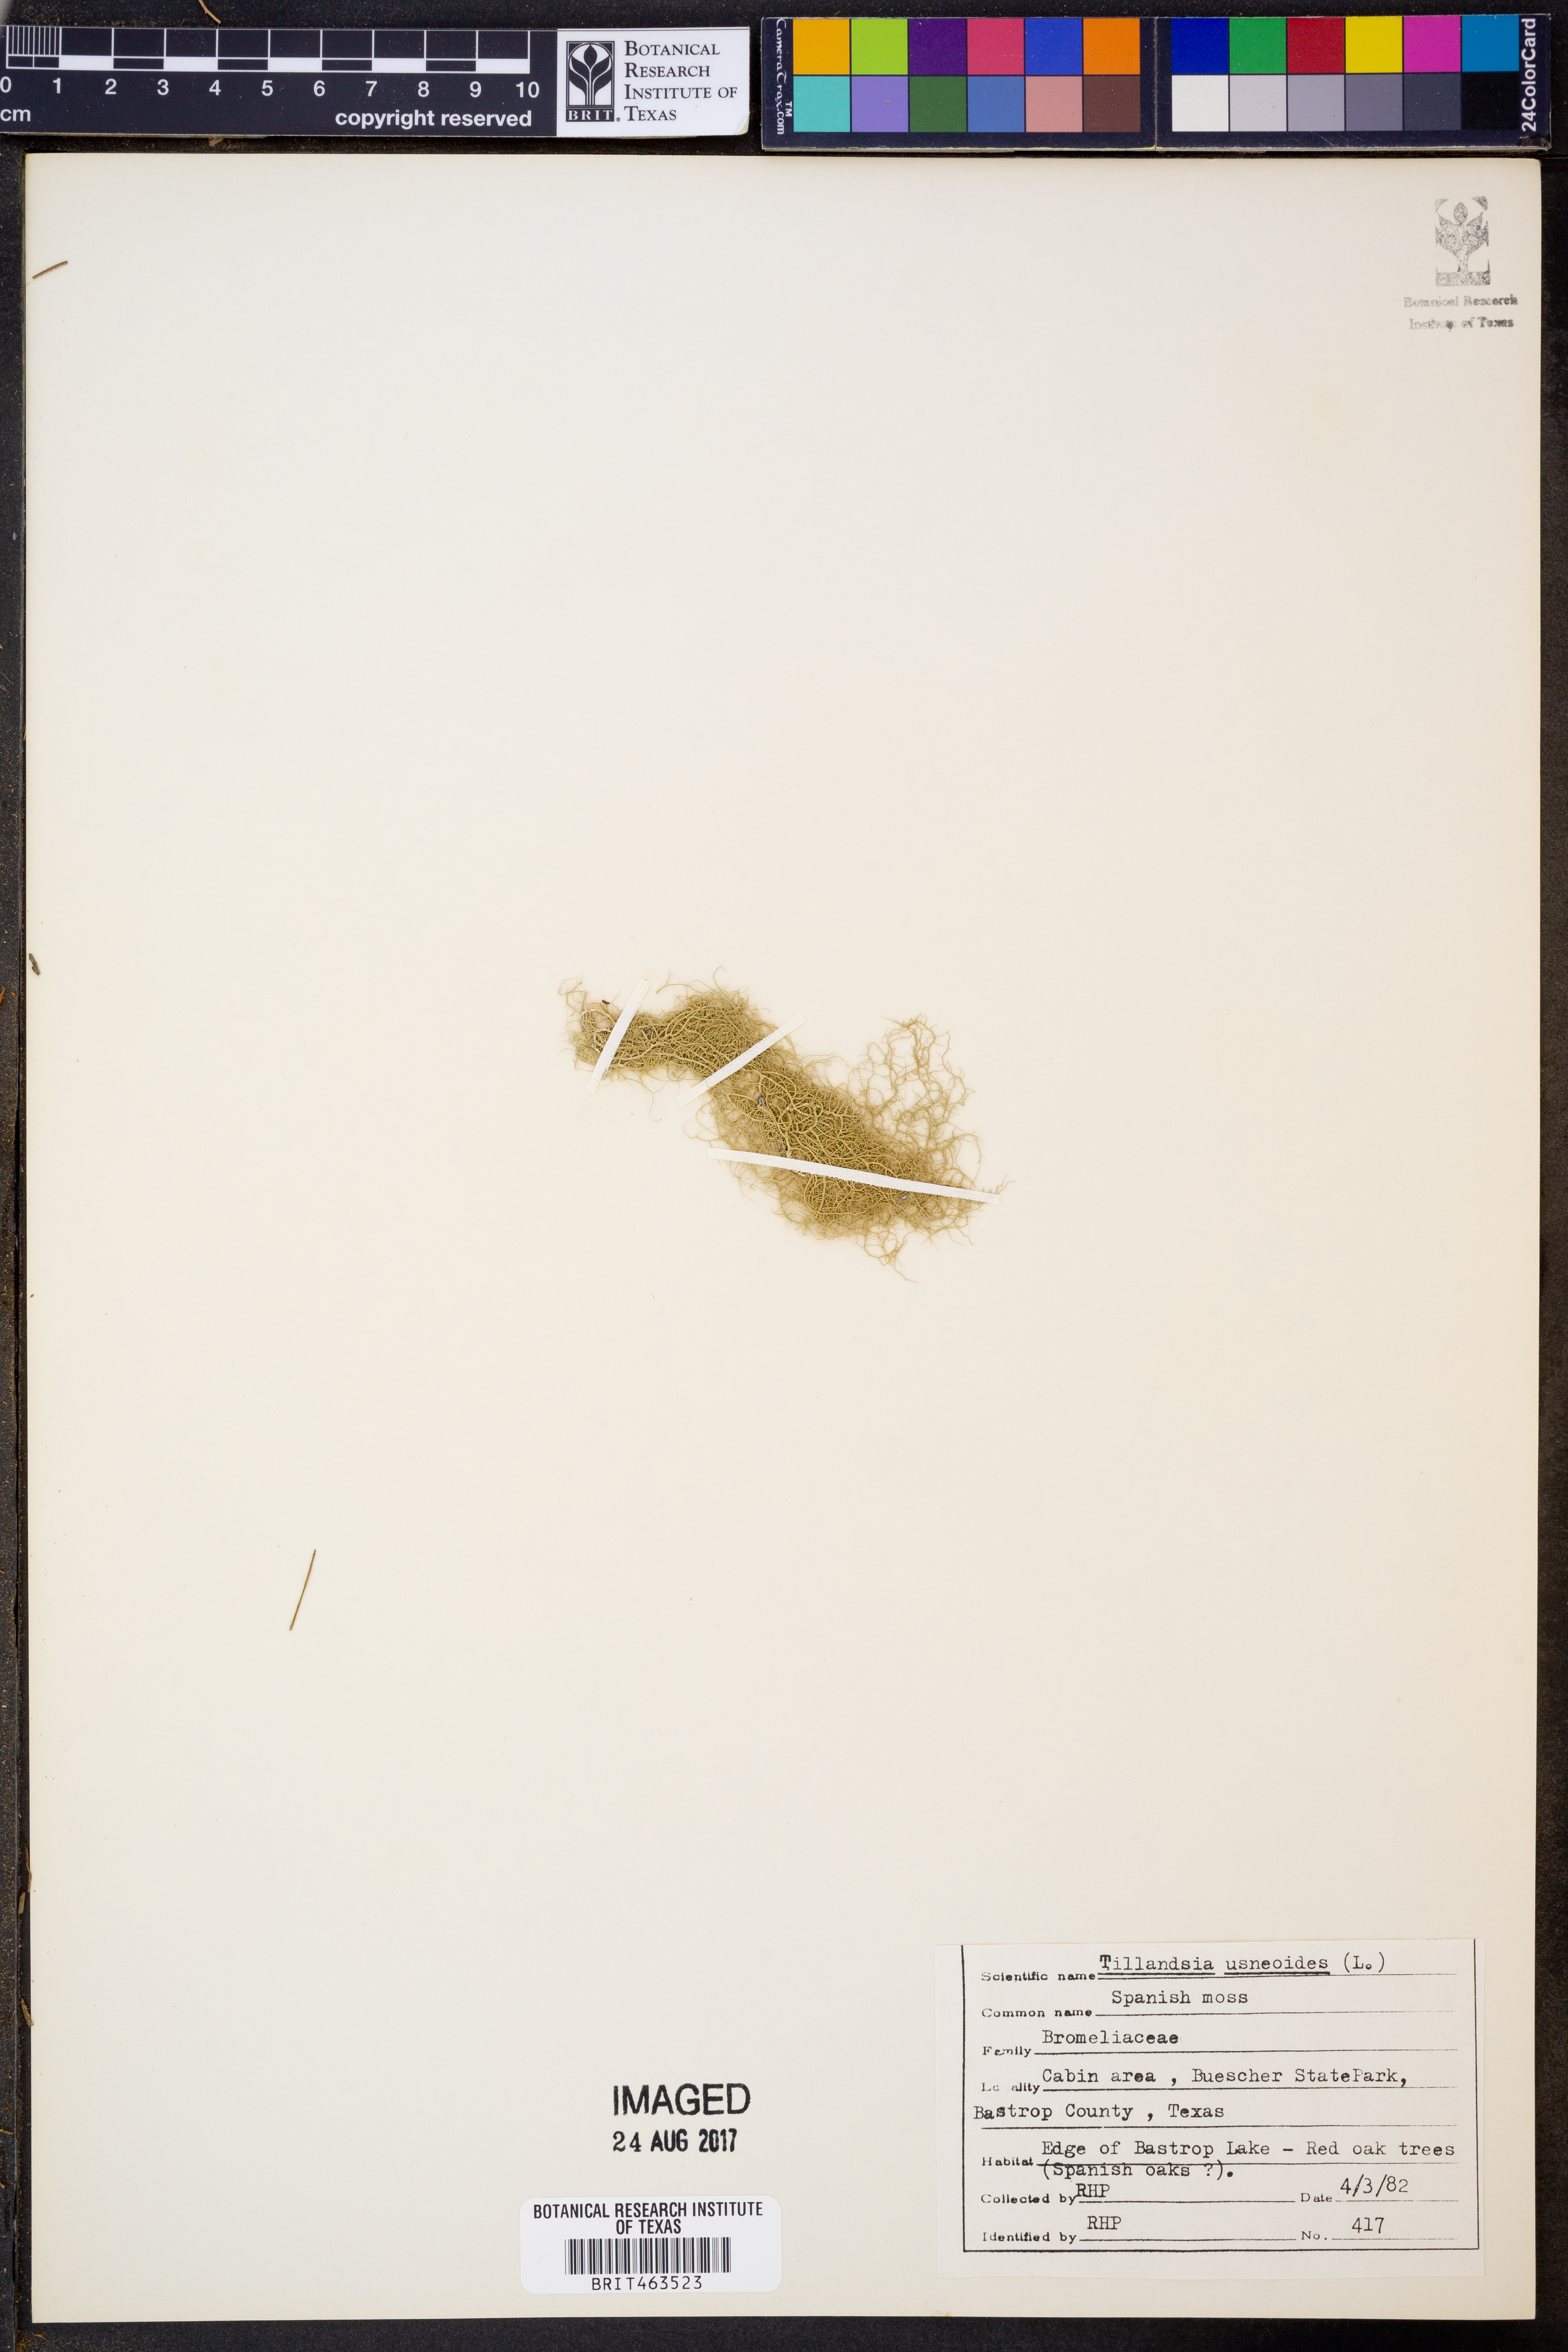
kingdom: Plantae
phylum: Tracheophyta
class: Liliopsida
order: Poales
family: Bromeliaceae
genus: Tillandsia
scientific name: Tillandsia usneoides
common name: Spanish moss
